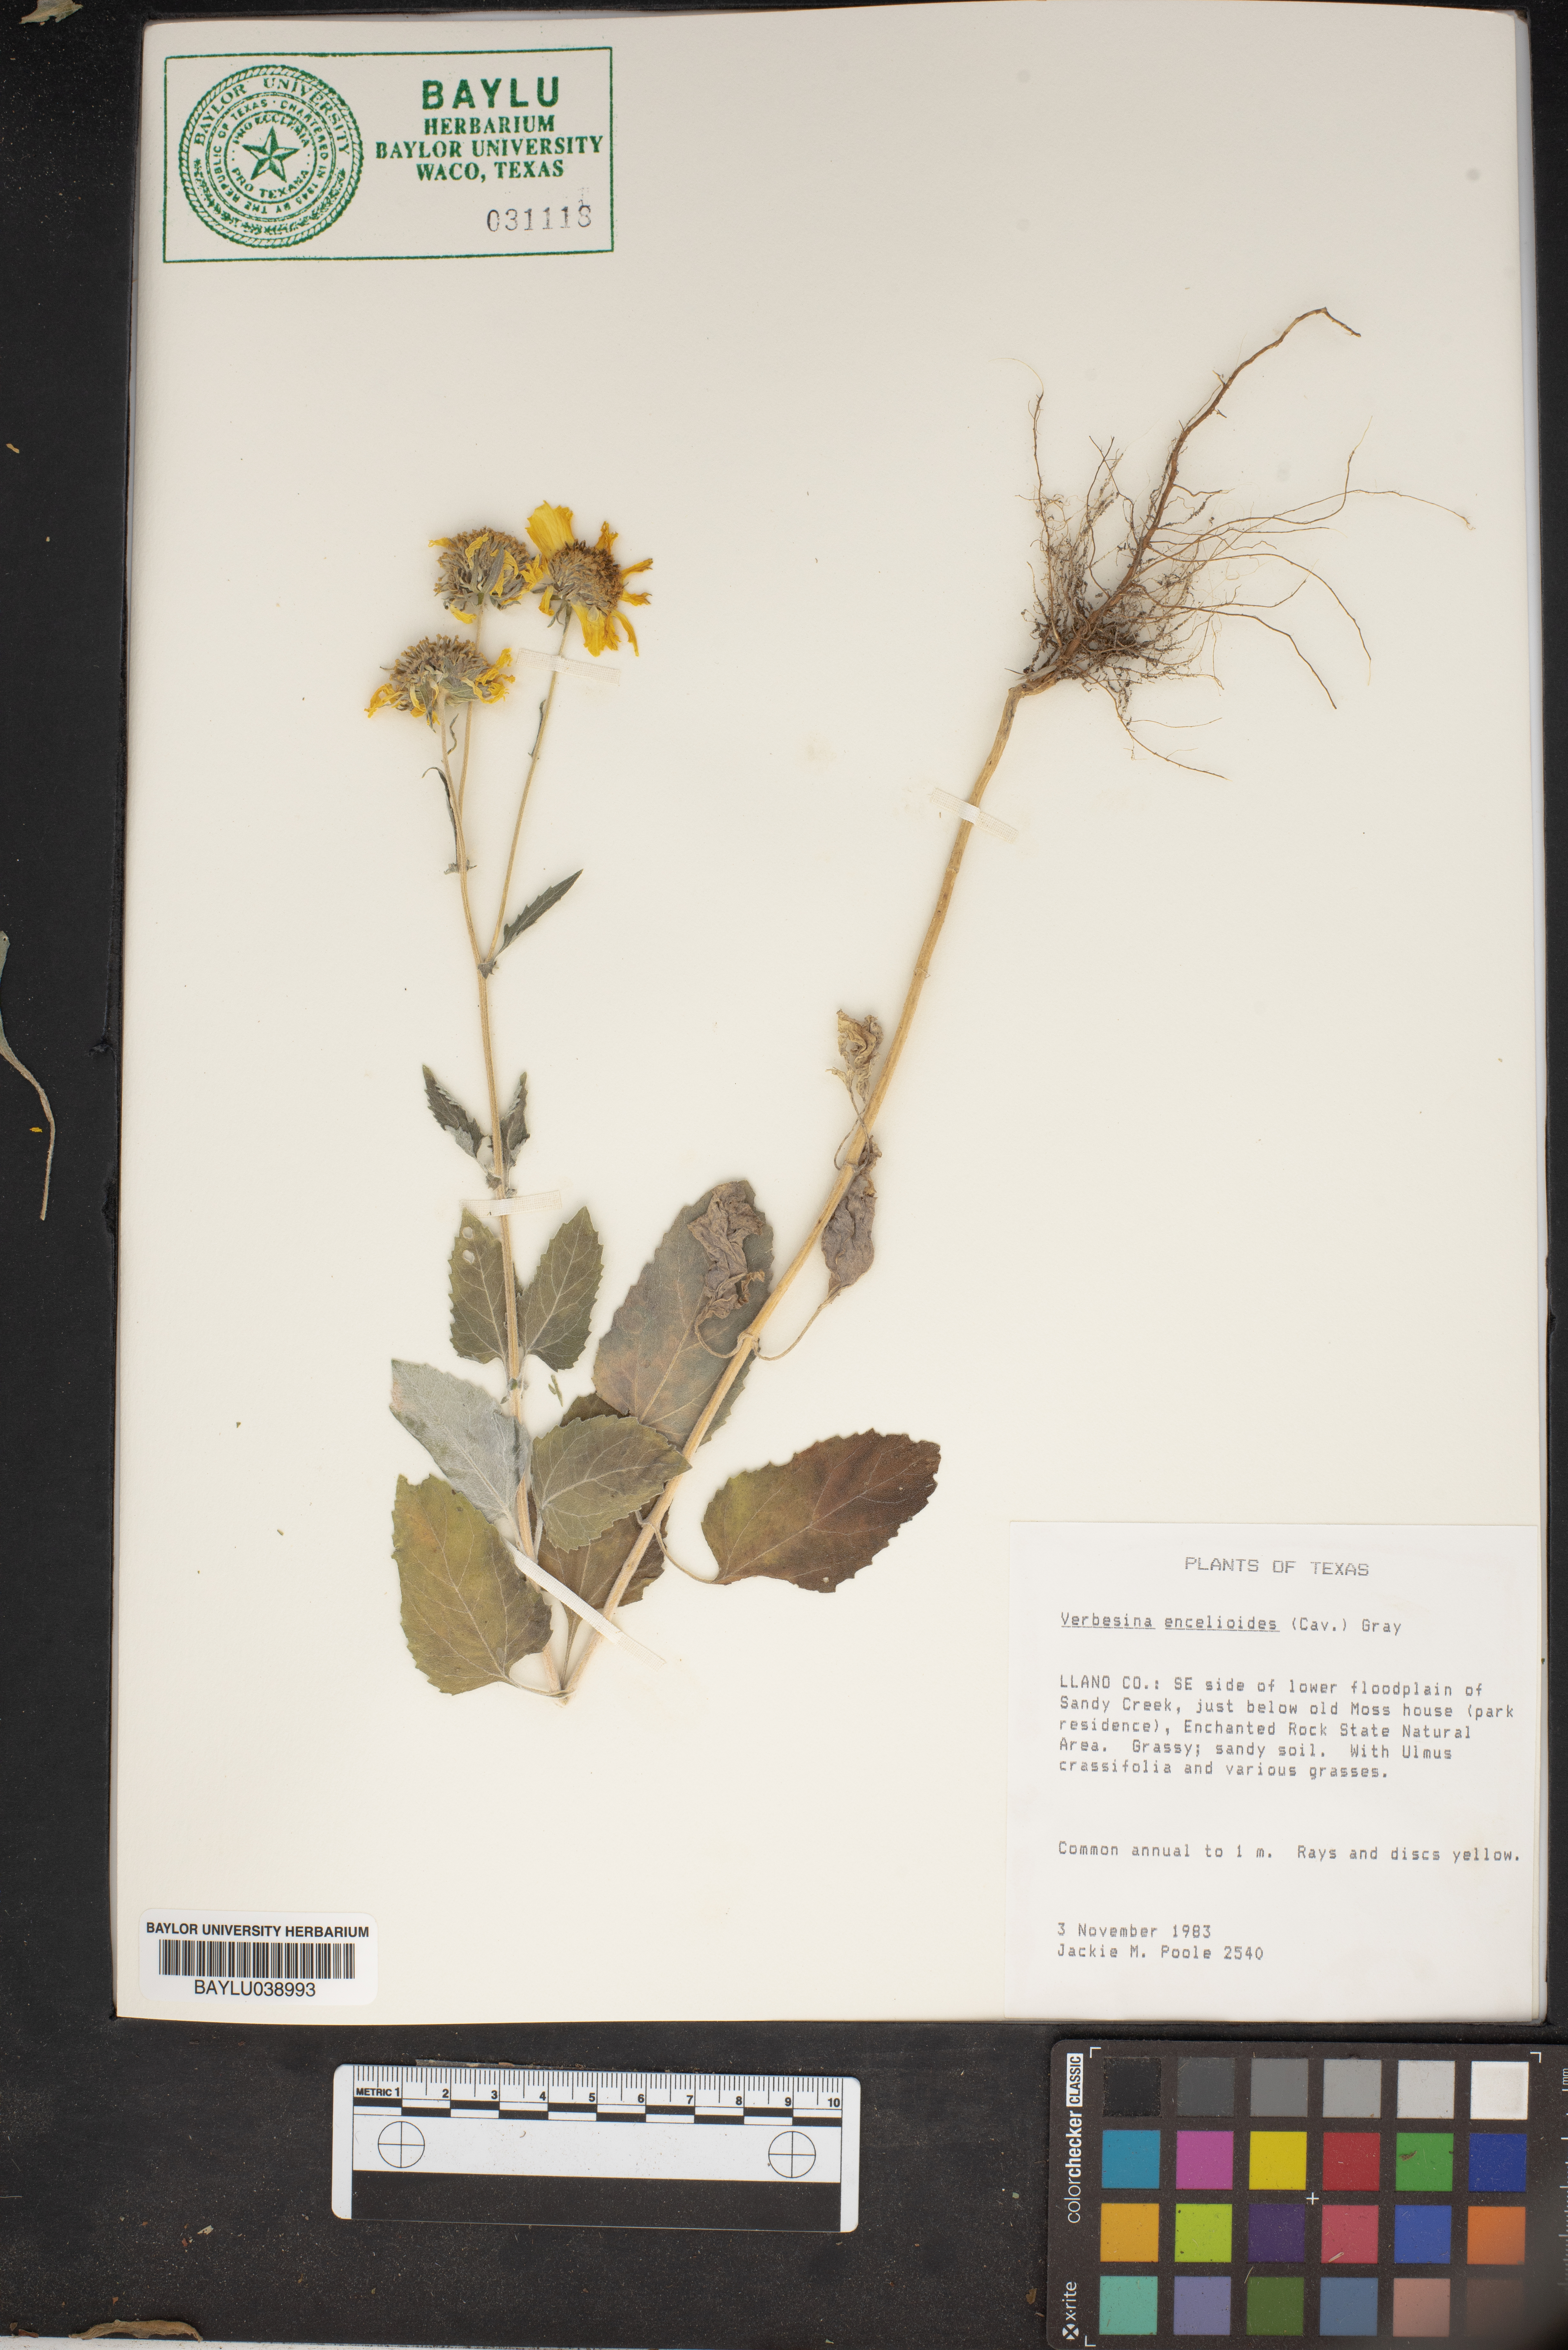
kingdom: Plantae
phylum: Tracheophyta
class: Magnoliopsida
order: Asterales
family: Asteraceae
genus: Verbesina
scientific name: Verbesina encelioides
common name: Golden crownbeard
